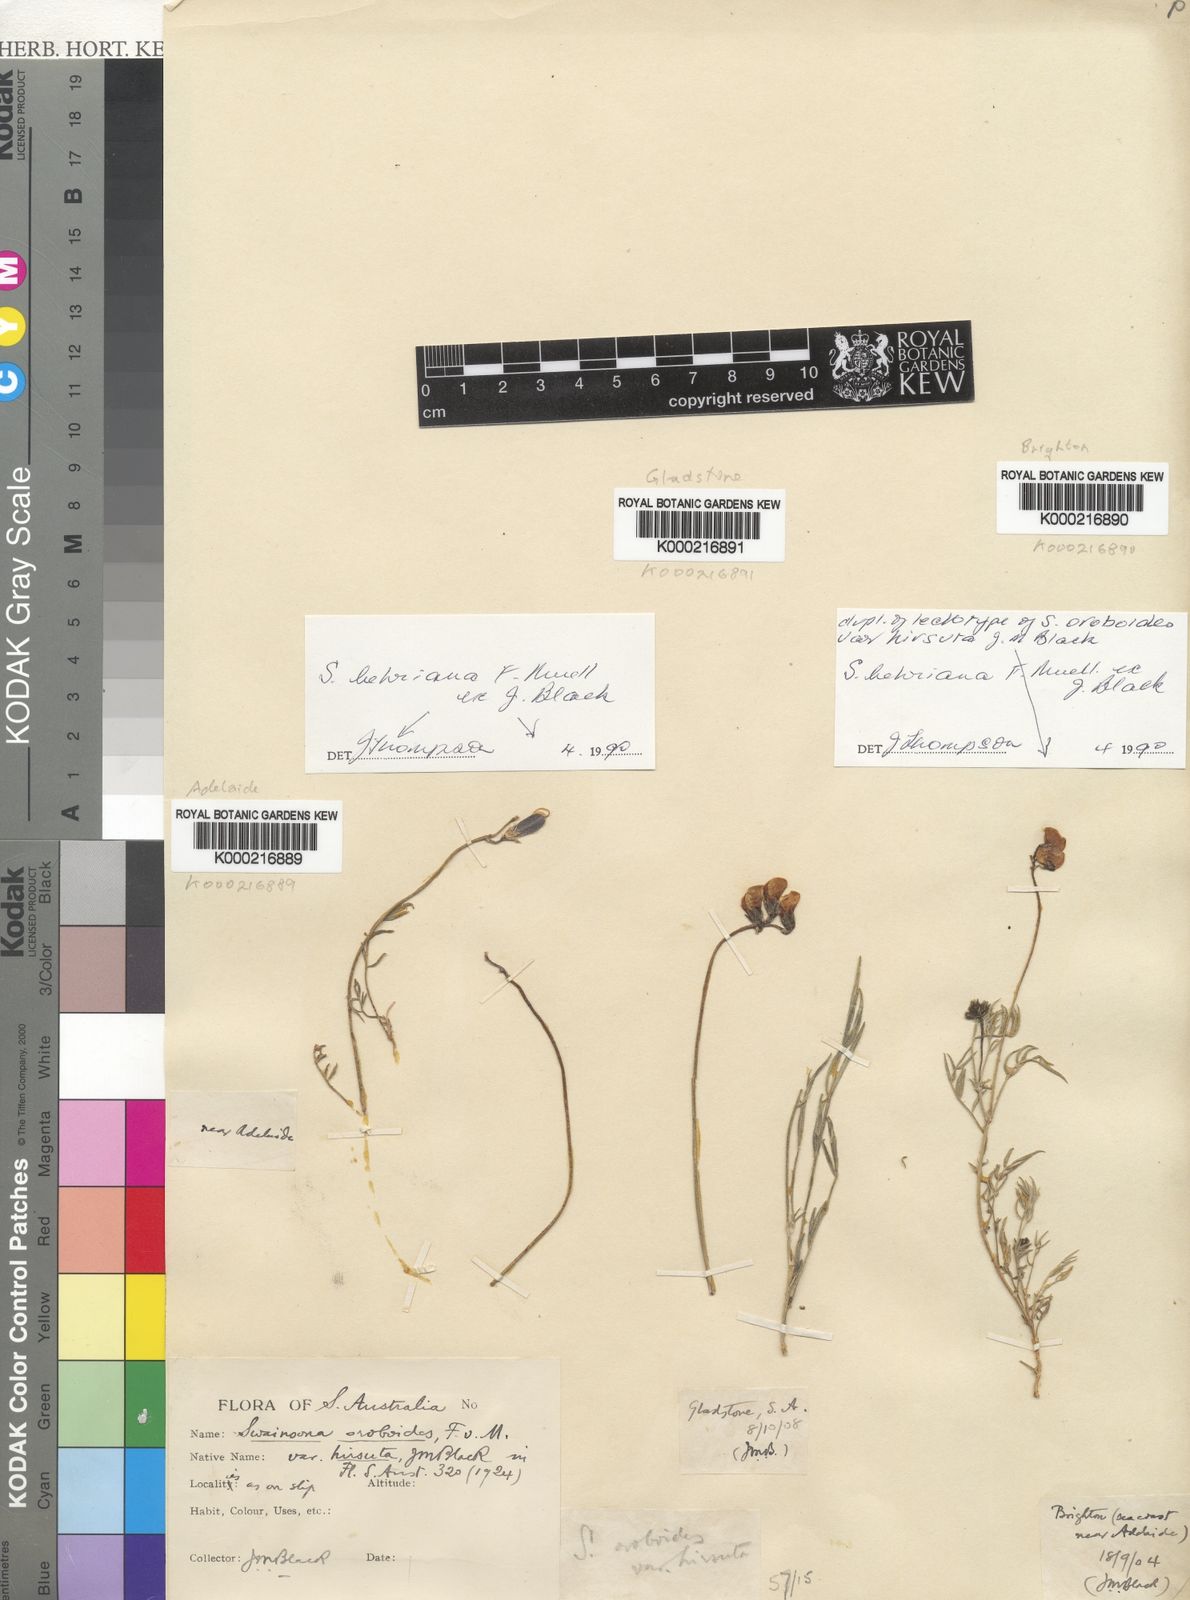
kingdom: Plantae
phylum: Tracheophyta
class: Magnoliopsida
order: Fabales
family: Fabaceae
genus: Swainsona
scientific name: Swainsona behriana
